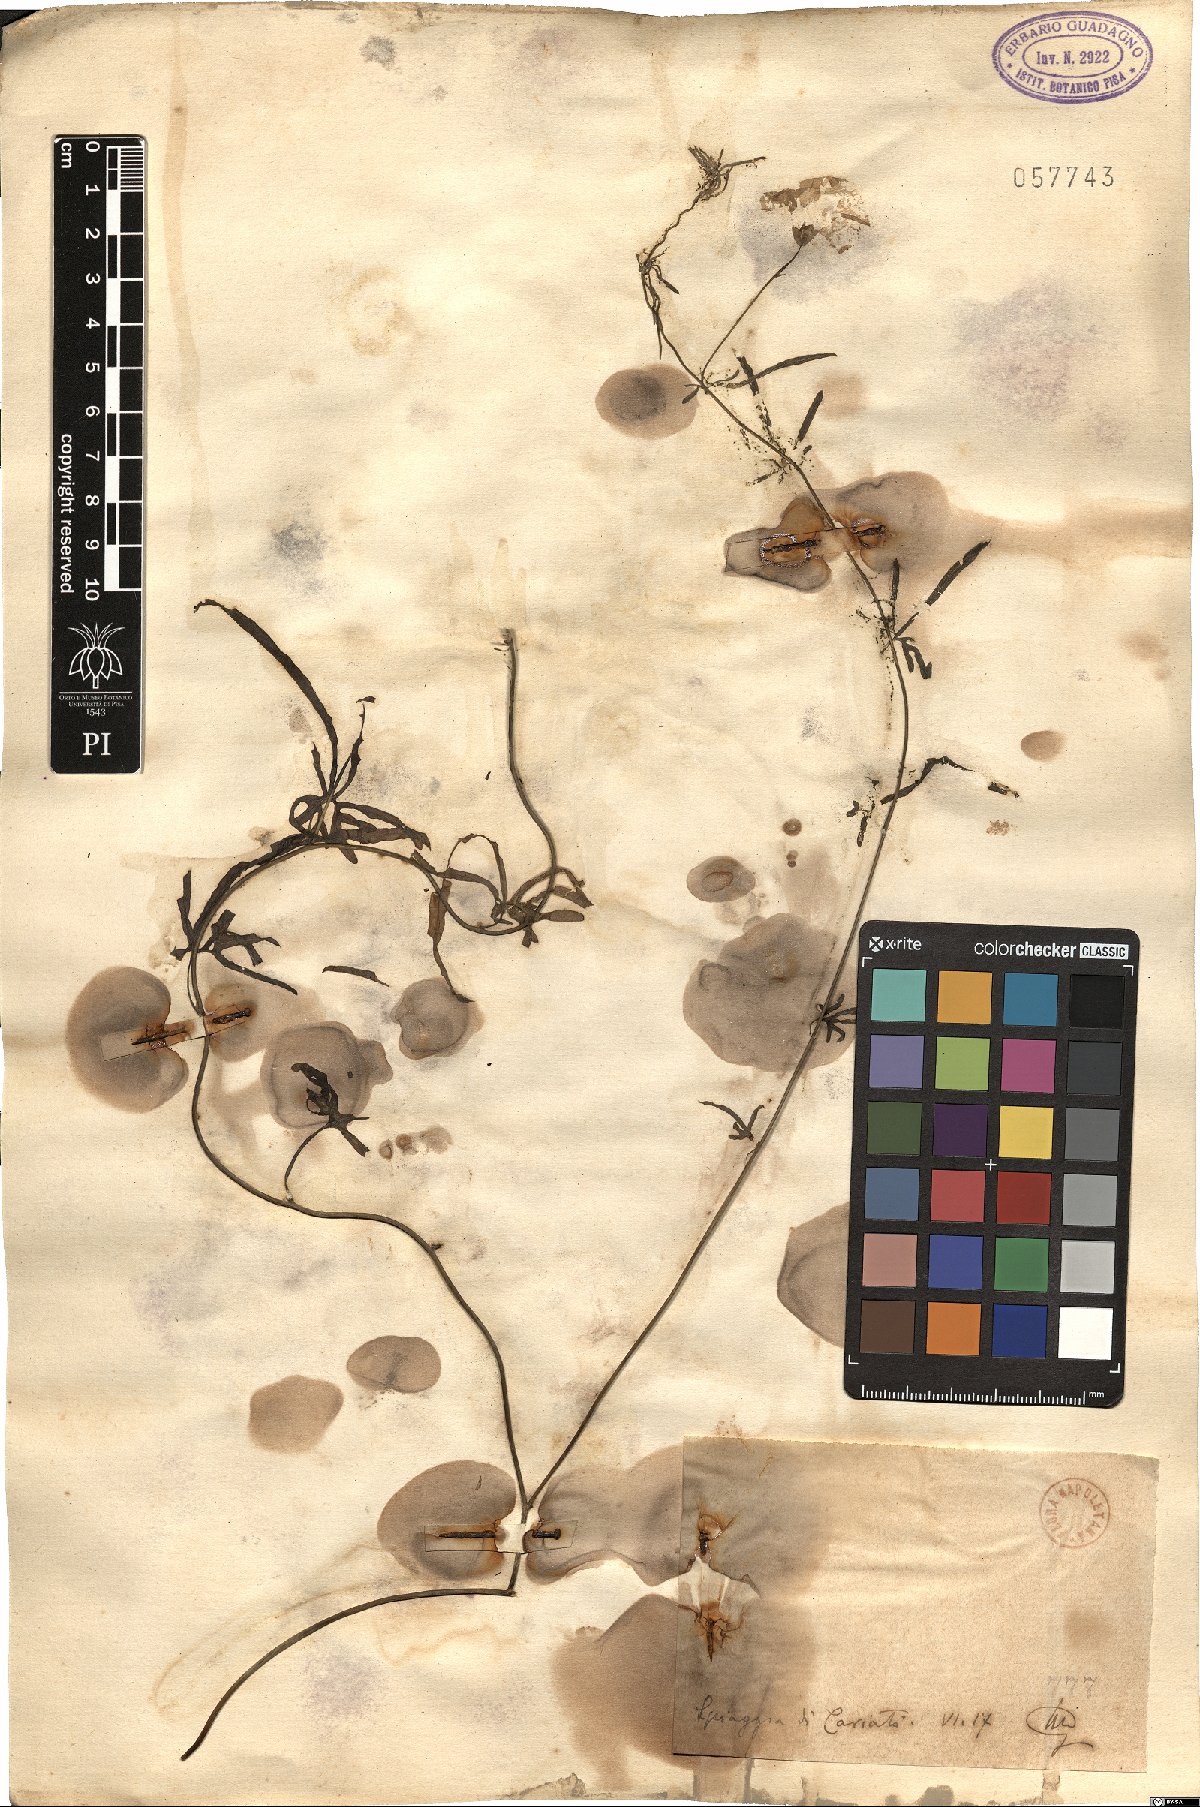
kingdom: Plantae
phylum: Tracheophyta
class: Magnoliopsida
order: Solanales
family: Convolvulaceae
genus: Convolvulus
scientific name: Convolvulus
